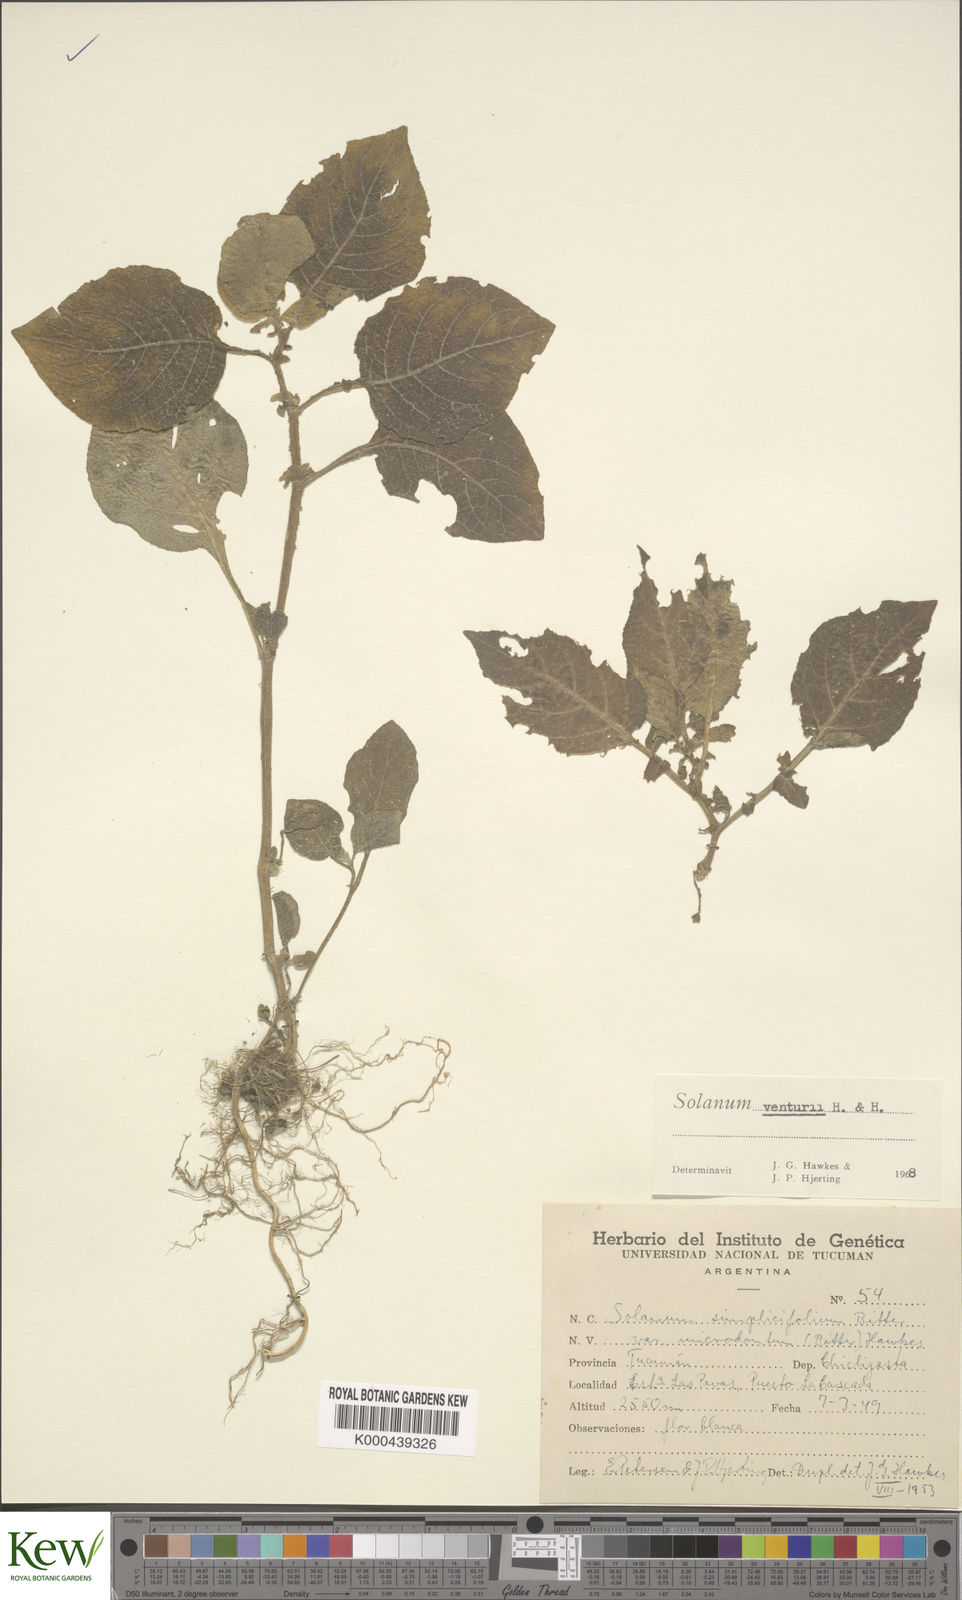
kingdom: Plantae
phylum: Tracheophyta
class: Magnoliopsida
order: Solanales
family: Solanaceae
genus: Solanum
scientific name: Solanum venturii
